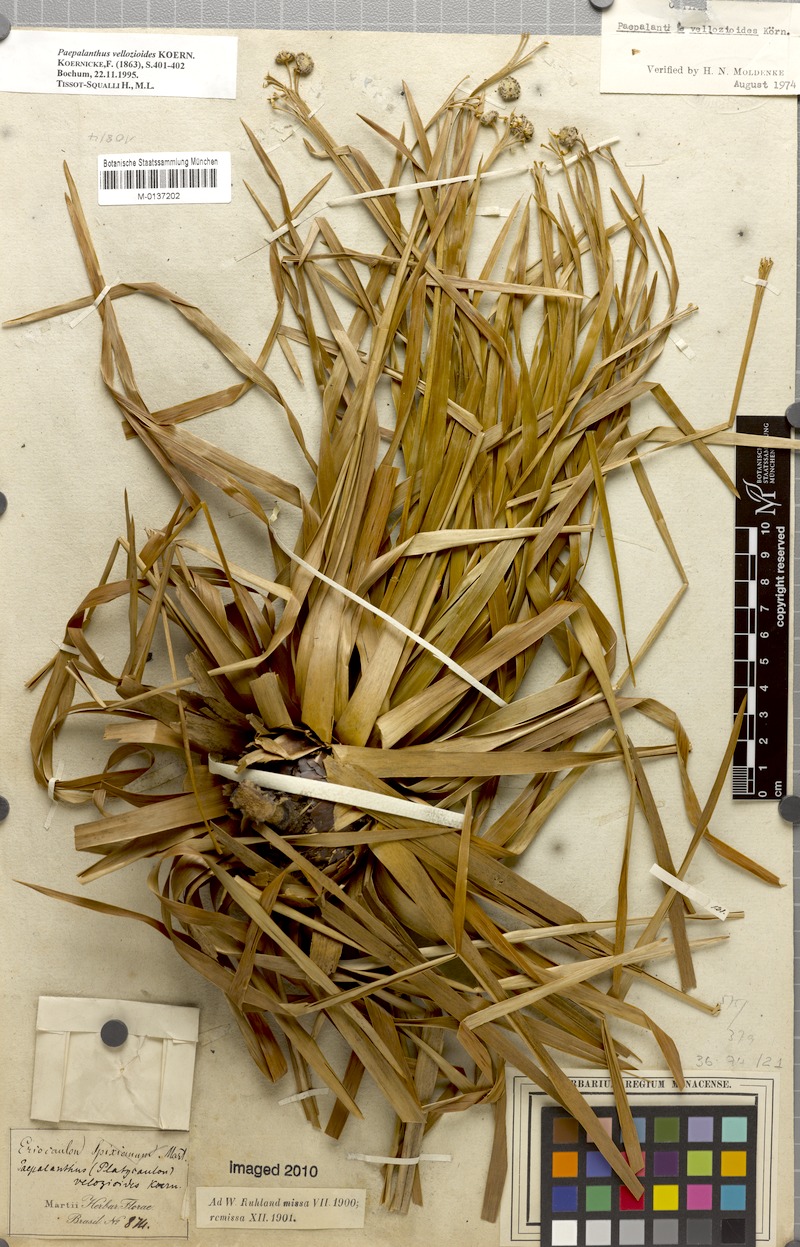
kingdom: Plantae
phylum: Tracheophyta
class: Liliopsida
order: Poales
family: Eriocaulaceae
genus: Paepalanthus
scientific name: Paepalanthus vellozioides
